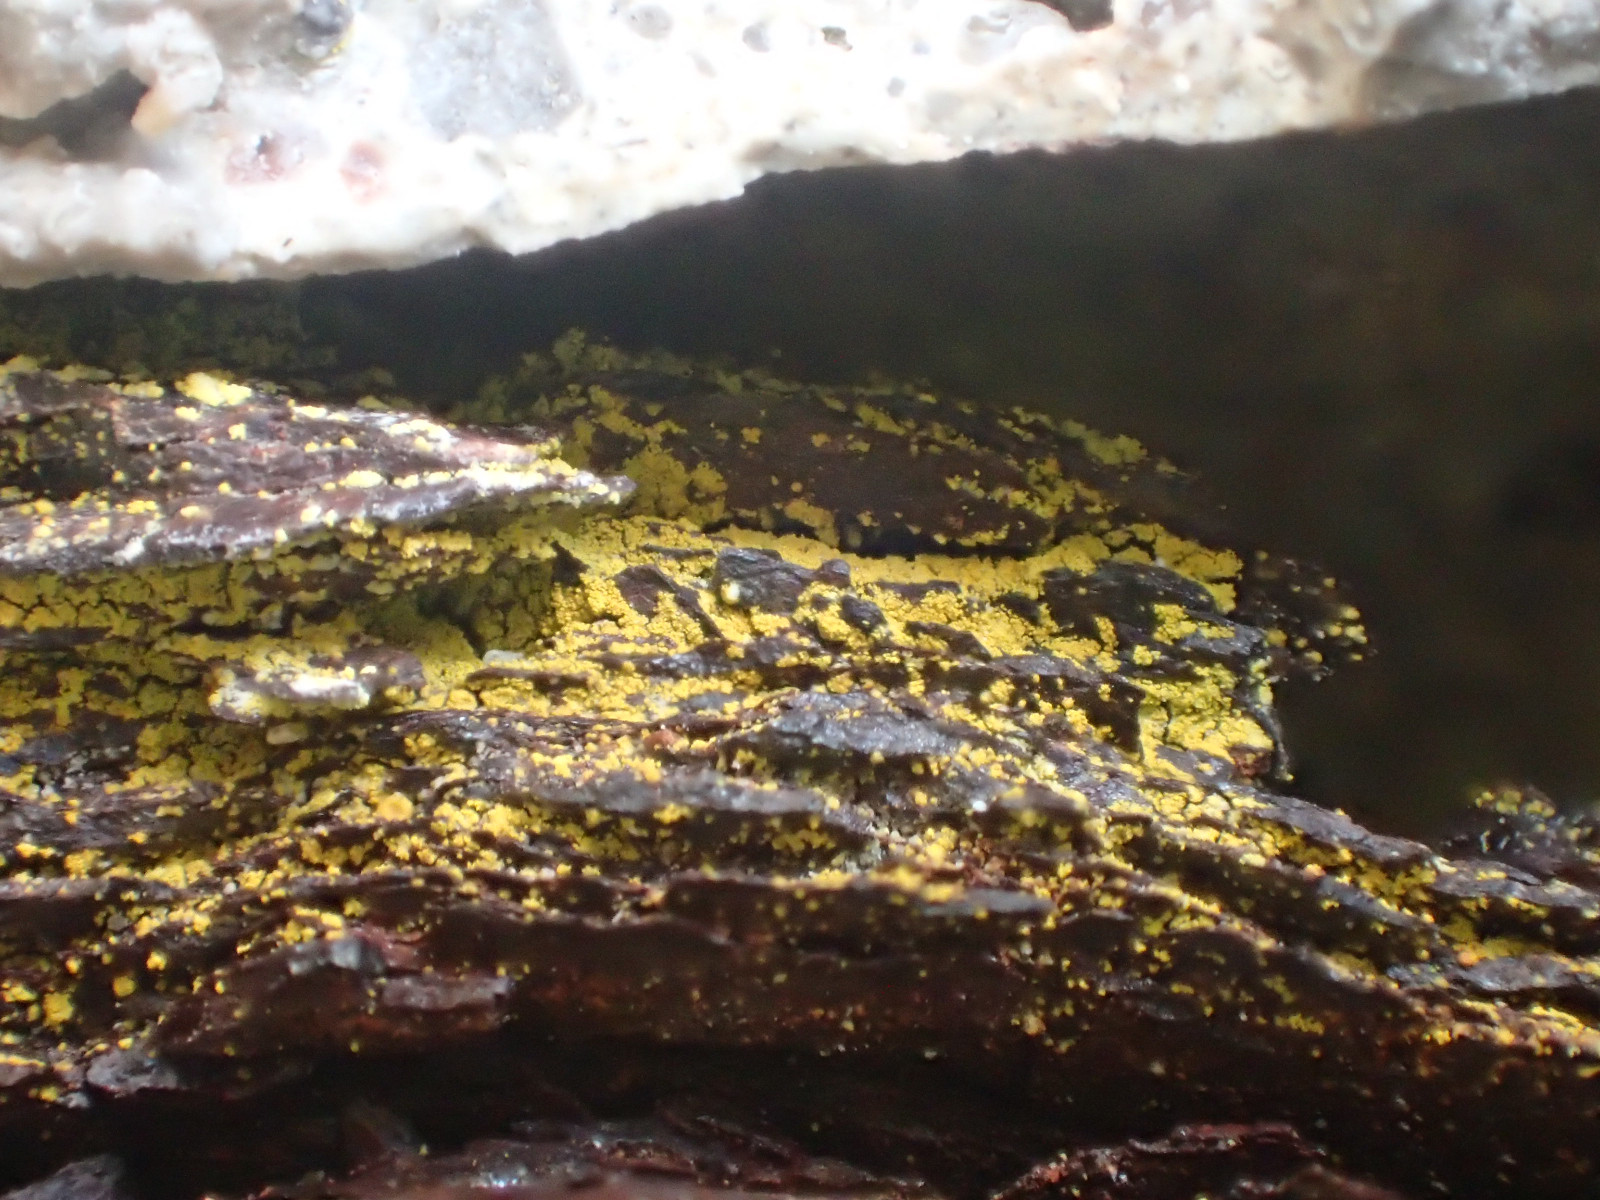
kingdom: Fungi
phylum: Ascomycota
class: Lecanoromycetes
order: Teloschistales
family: Teloschistaceae
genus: Flavoplaca
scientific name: Flavoplaca flavocitrina
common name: grynskællet orangelav
